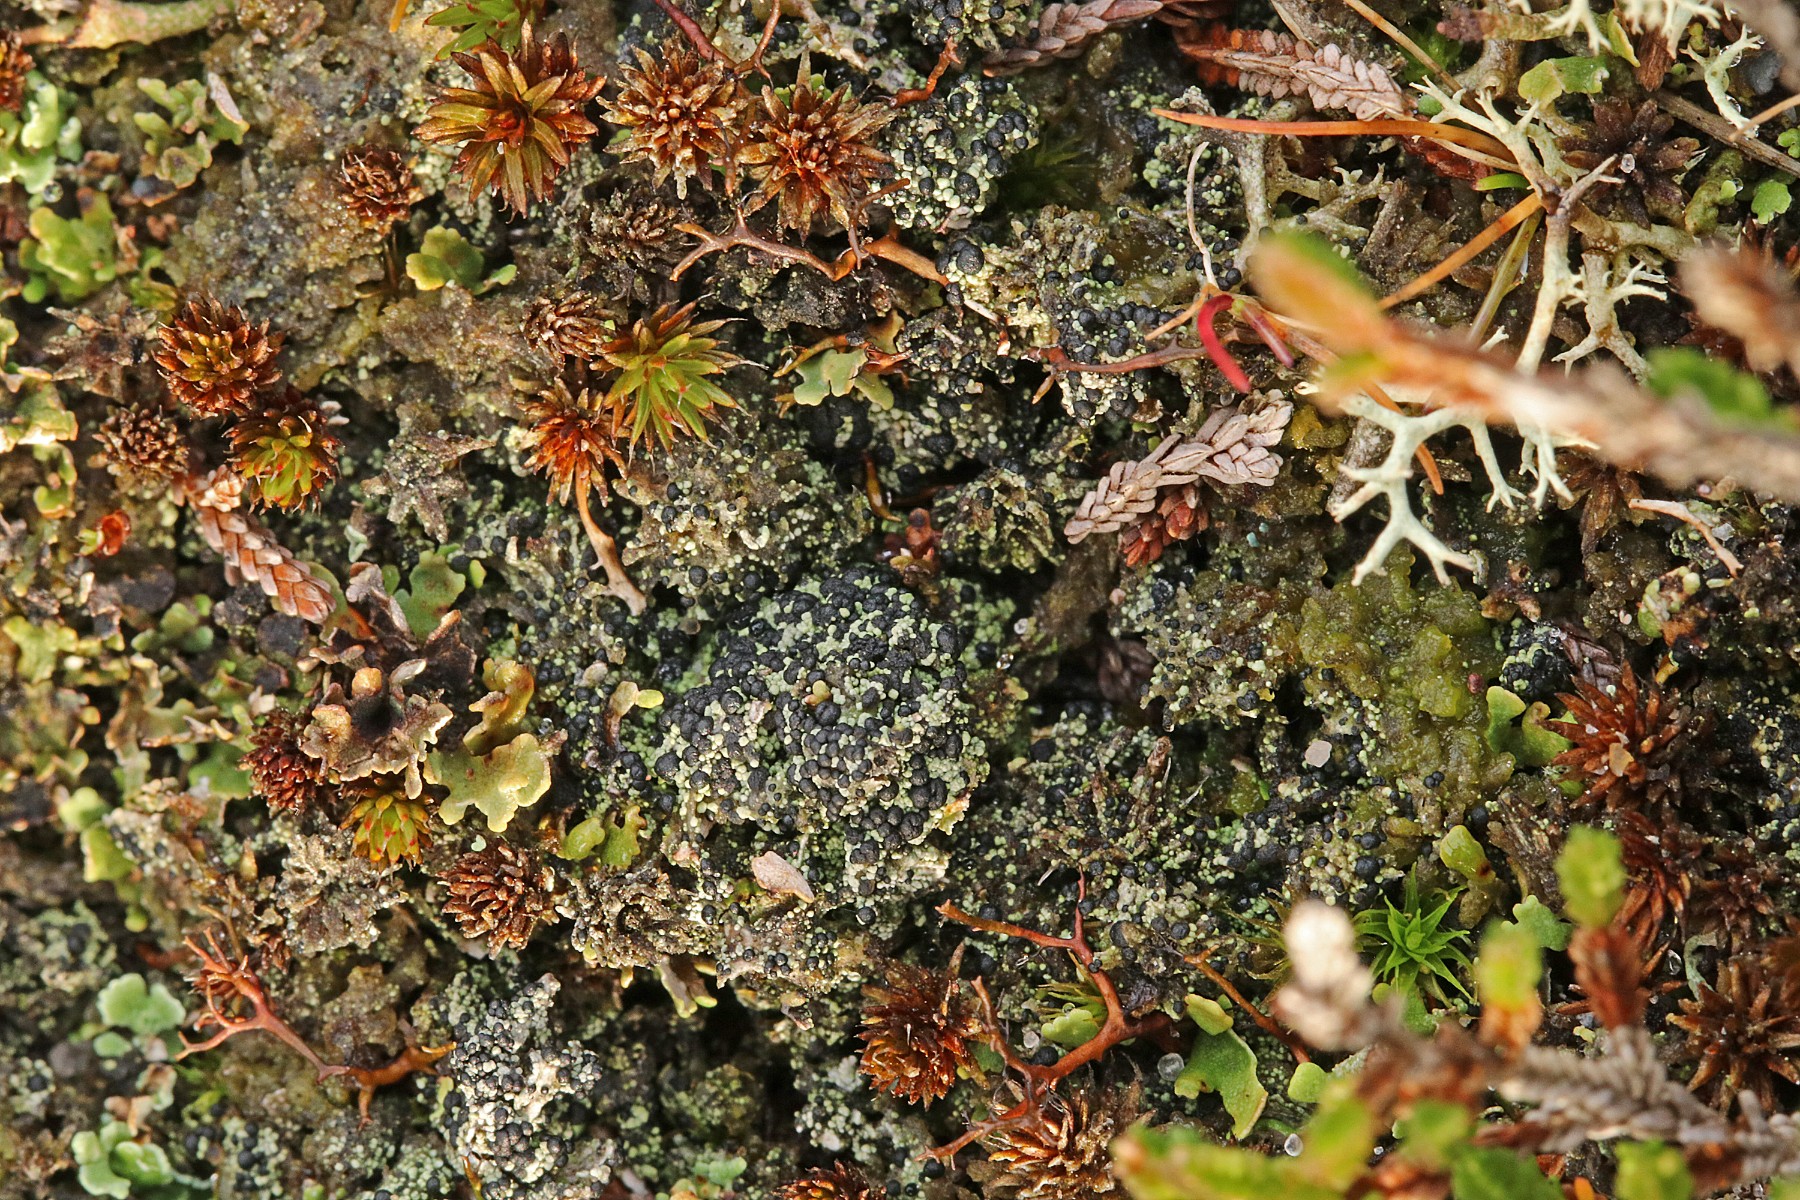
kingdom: Fungi
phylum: Ascomycota
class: Lecanoromycetes
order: Lecanorales
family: Byssolomataceae
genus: Micarea
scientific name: Micarea lignaria
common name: tørve-knaplav
